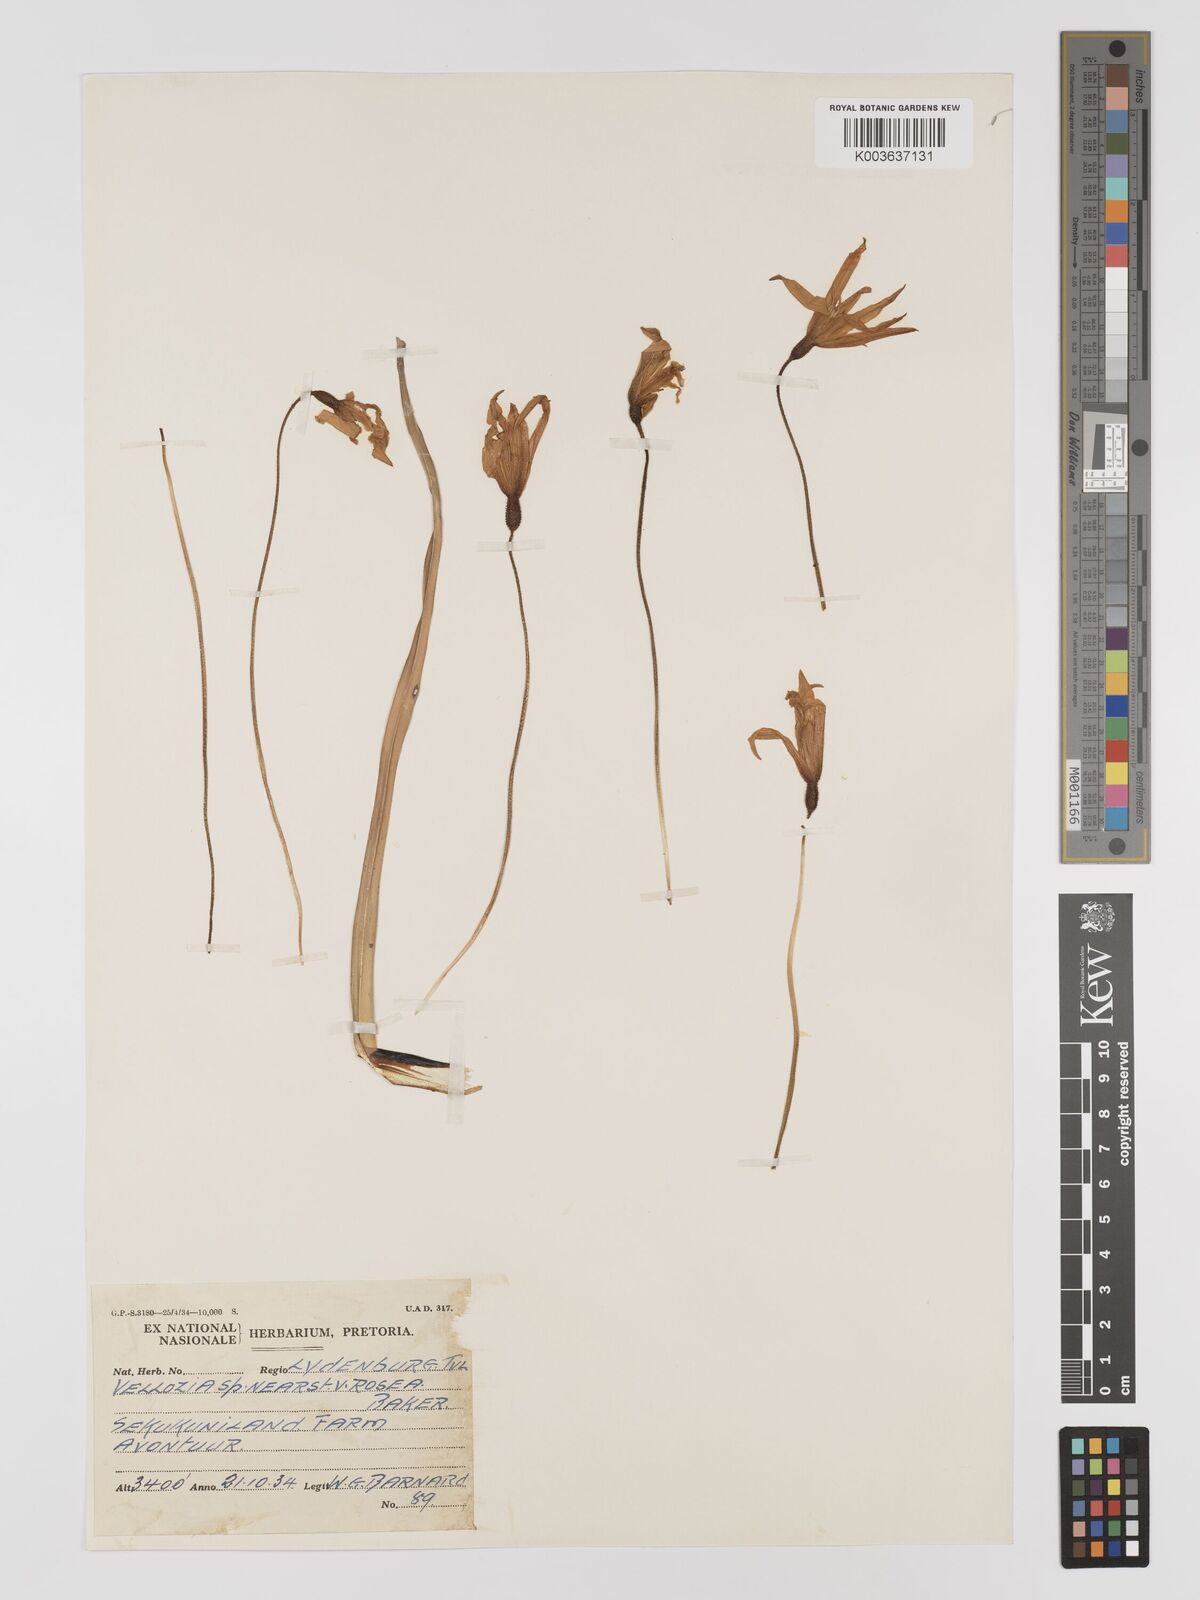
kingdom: Plantae
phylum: Tracheophyta
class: Liliopsida
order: Pandanales
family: Velloziaceae
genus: Xerophyta
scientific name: Xerophyta
